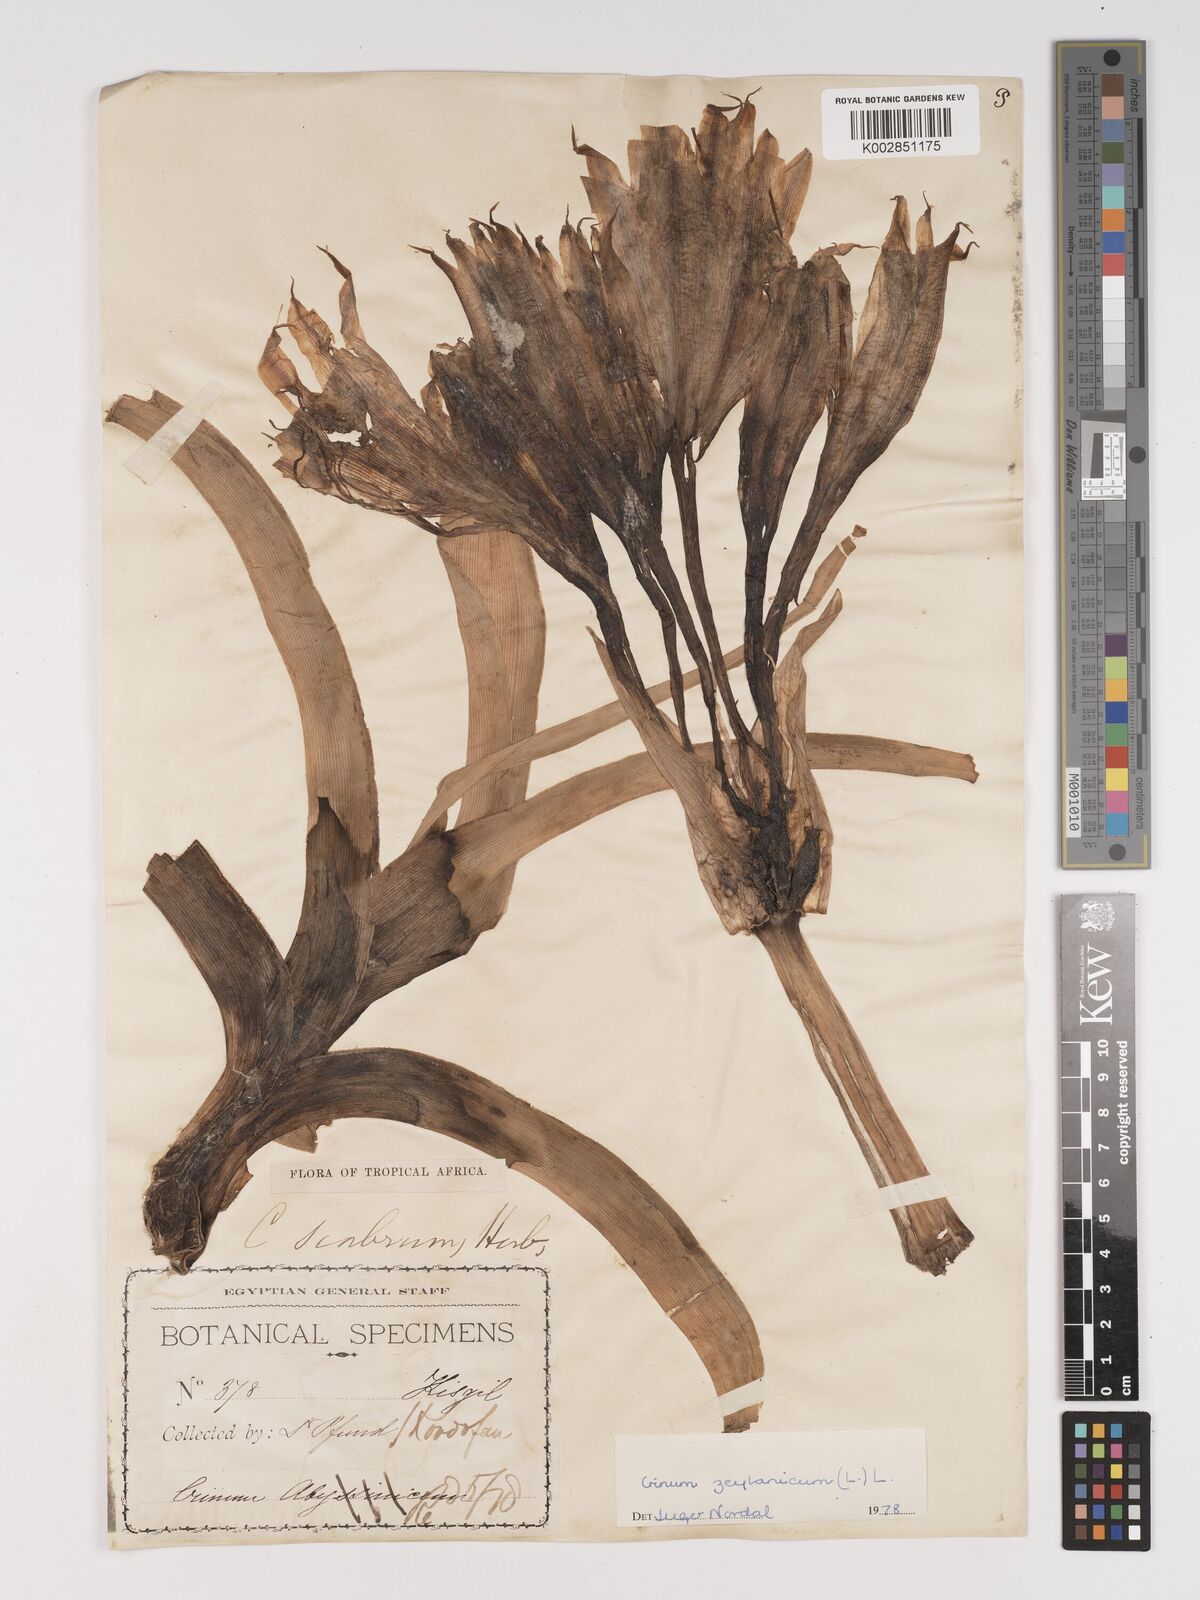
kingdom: Plantae
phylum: Tracheophyta
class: Liliopsida
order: Asparagales
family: Amaryllidaceae
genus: Crinum
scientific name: Crinum zeylanicum
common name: Ceylon swamplily
